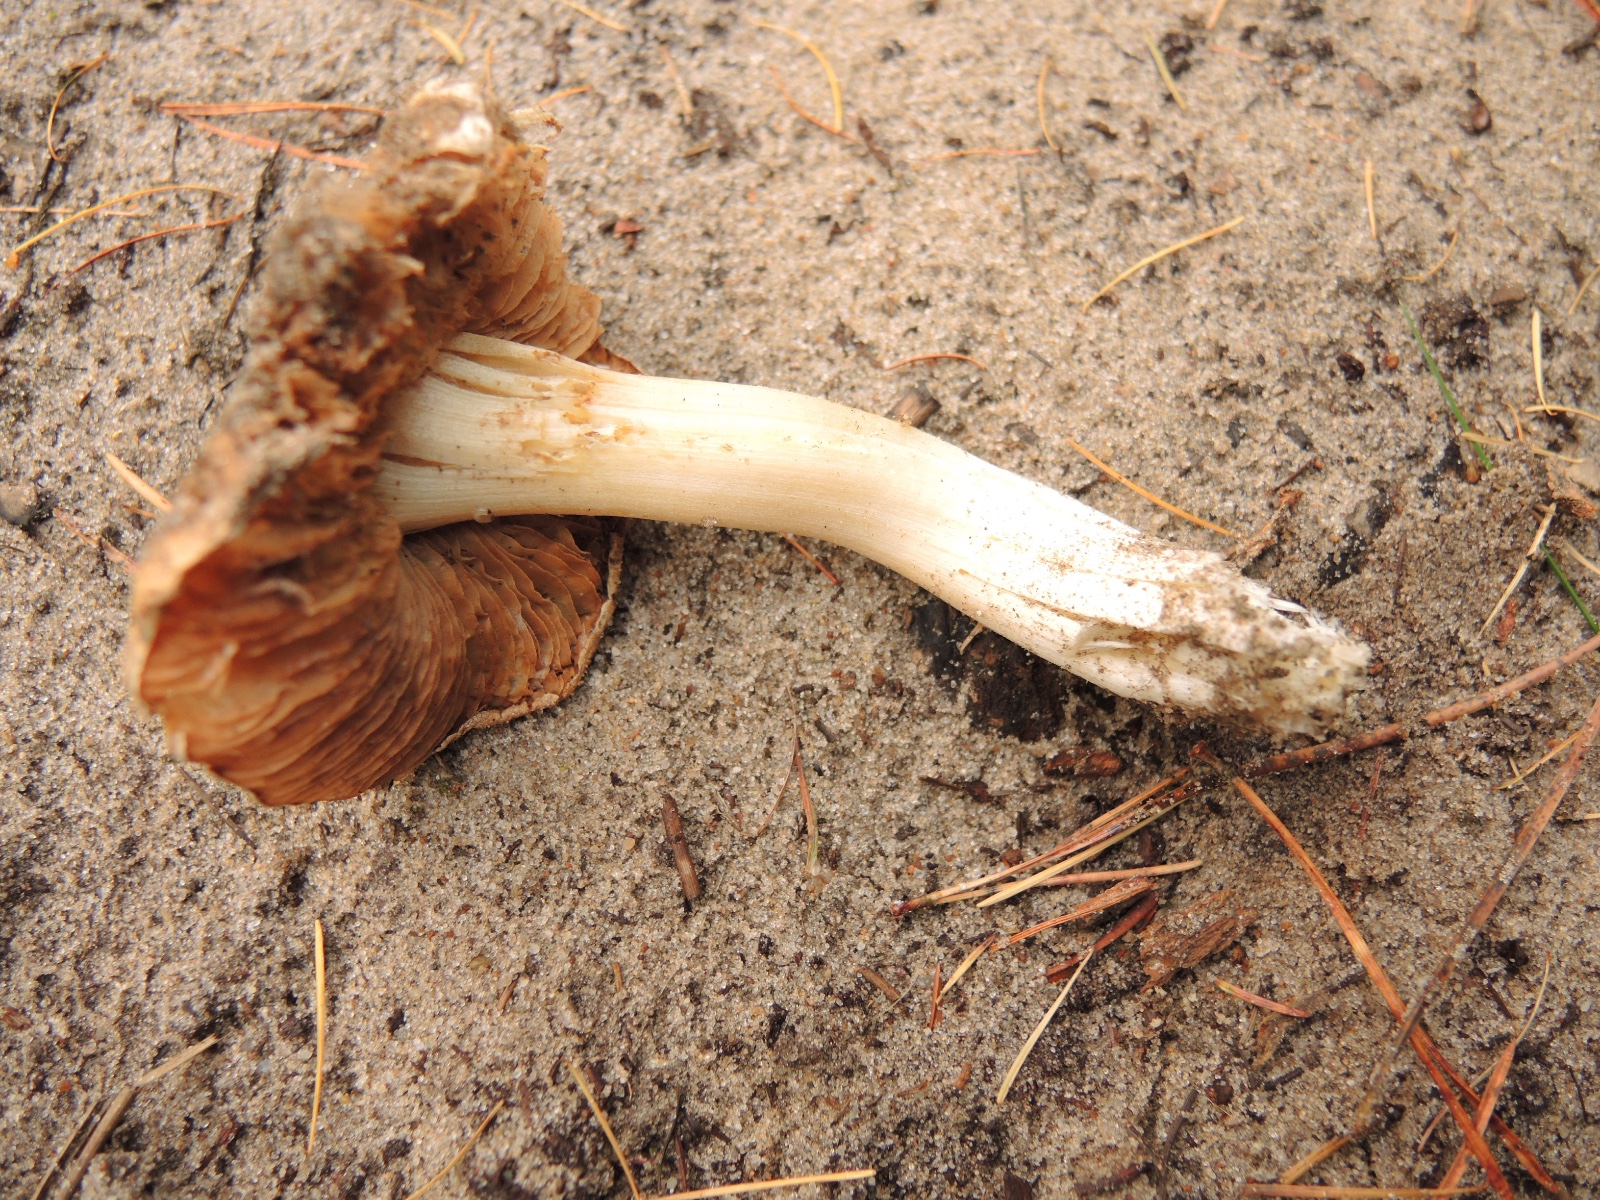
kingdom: Fungi
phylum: Basidiomycota
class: Agaricomycetes
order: Agaricales
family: Inocybaceae
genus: Inocybe
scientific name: Inocybe sambucina
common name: hyldehvid trævlhat
